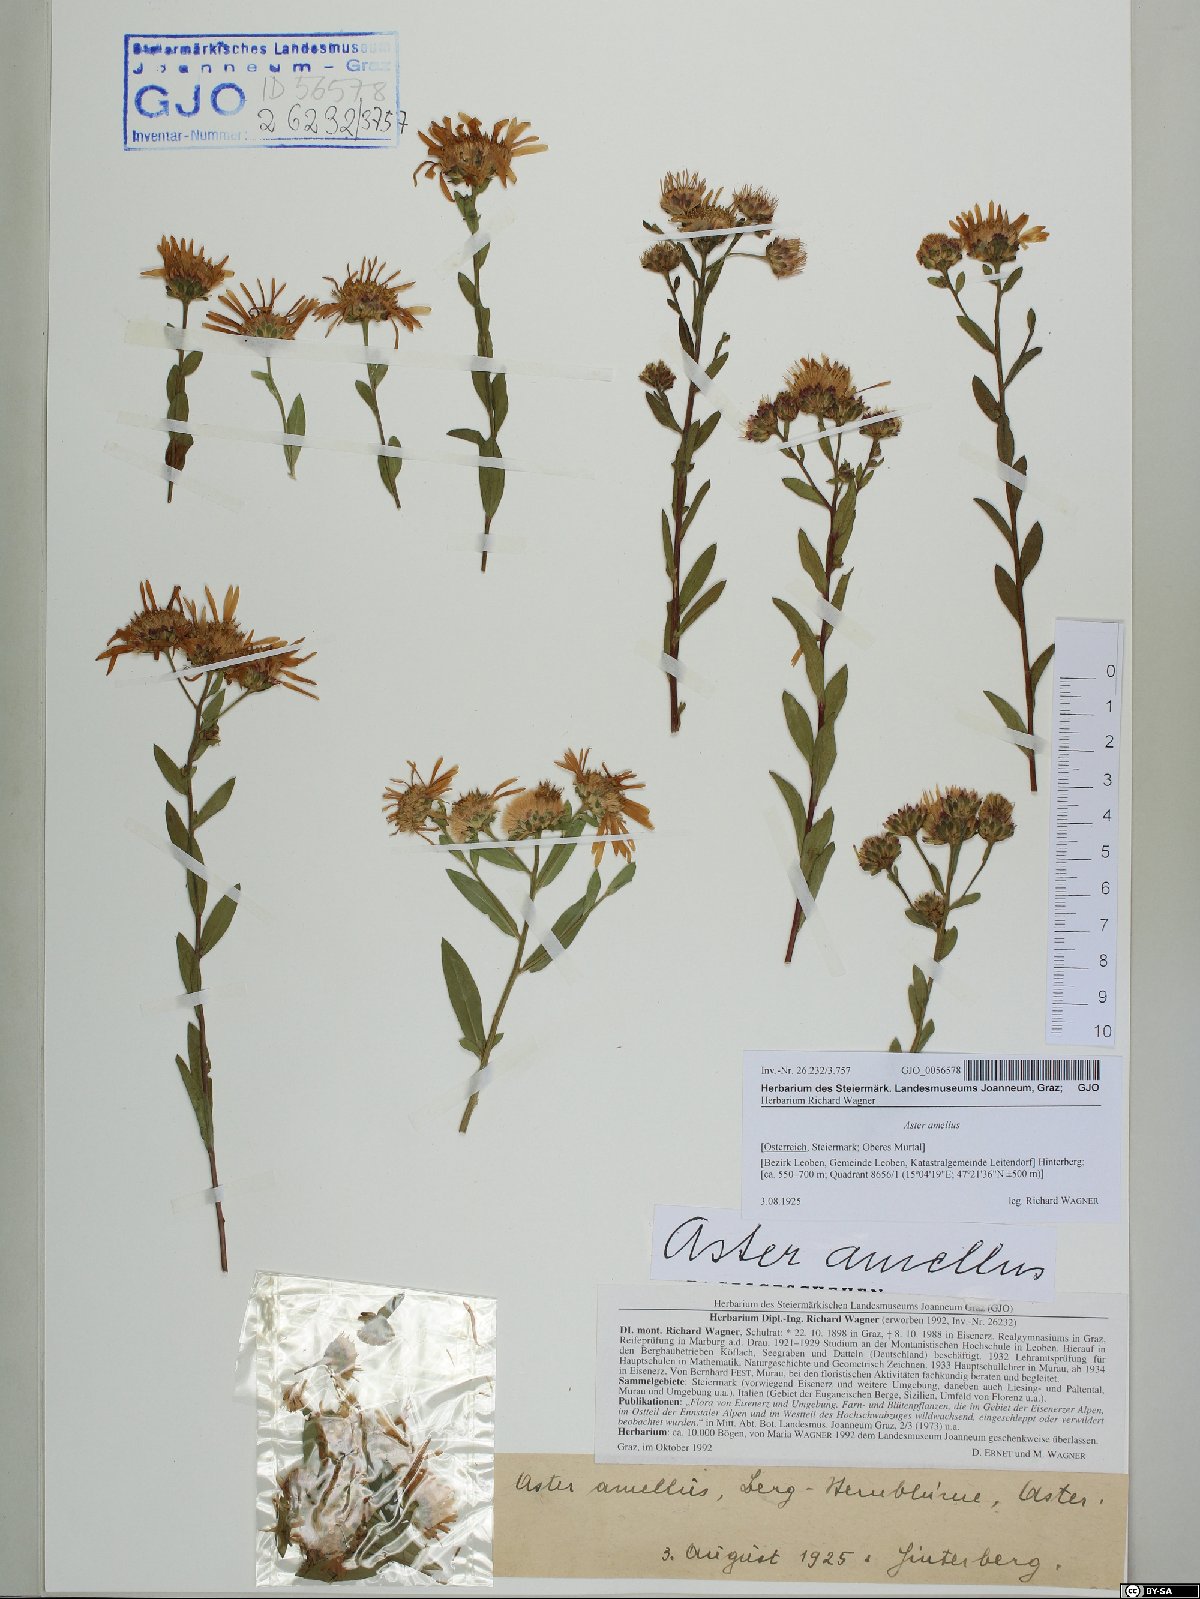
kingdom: Plantae
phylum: Tracheophyta
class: Magnoliopsida
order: Asterales
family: Asteraceae
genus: Aster
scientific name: Aster amellus
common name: European michaelmas daisy
